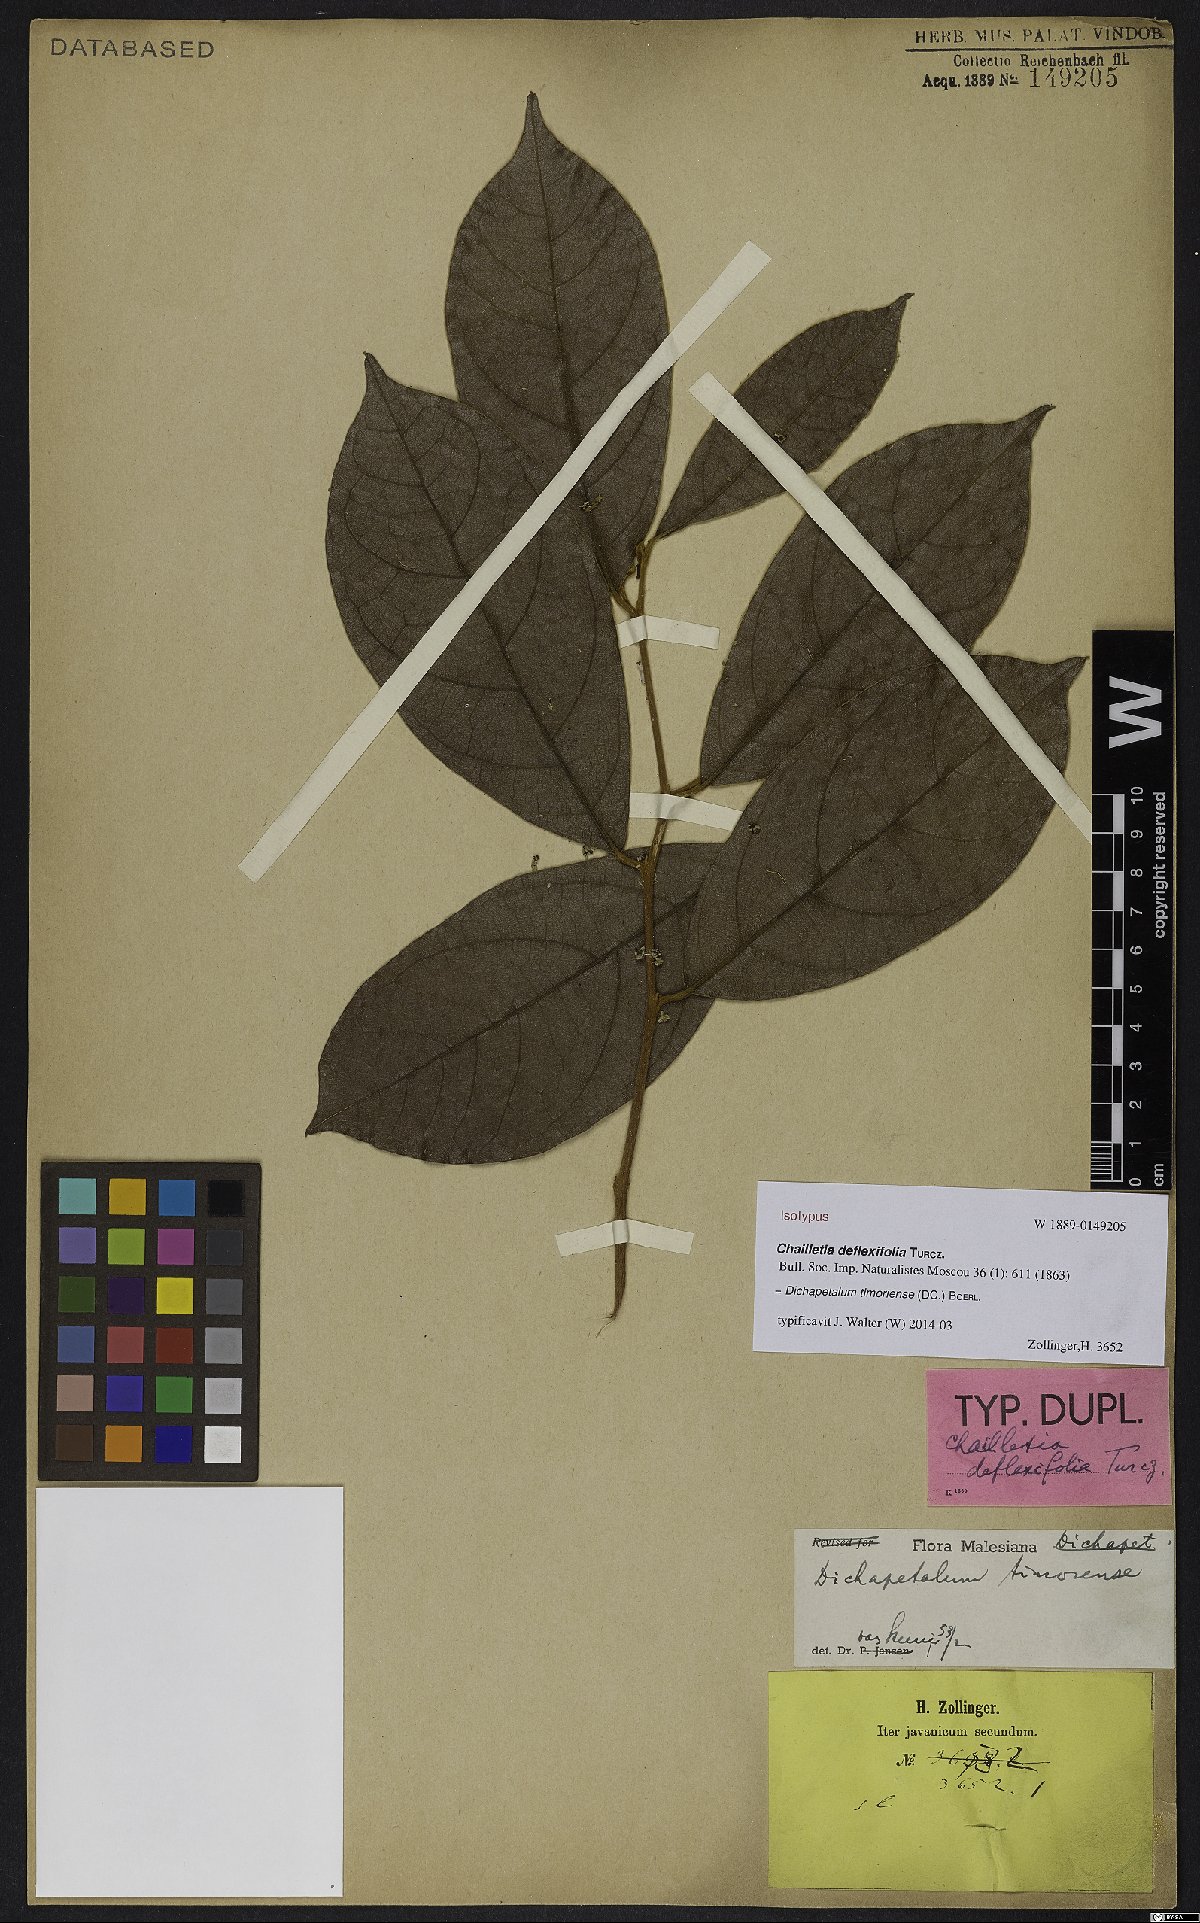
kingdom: Plantae
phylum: Tracheophyta
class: Magnoliopsida
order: Malpighiales
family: Dichapetalaceae
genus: Dichapetalum
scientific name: Dichapetalum timoriense
